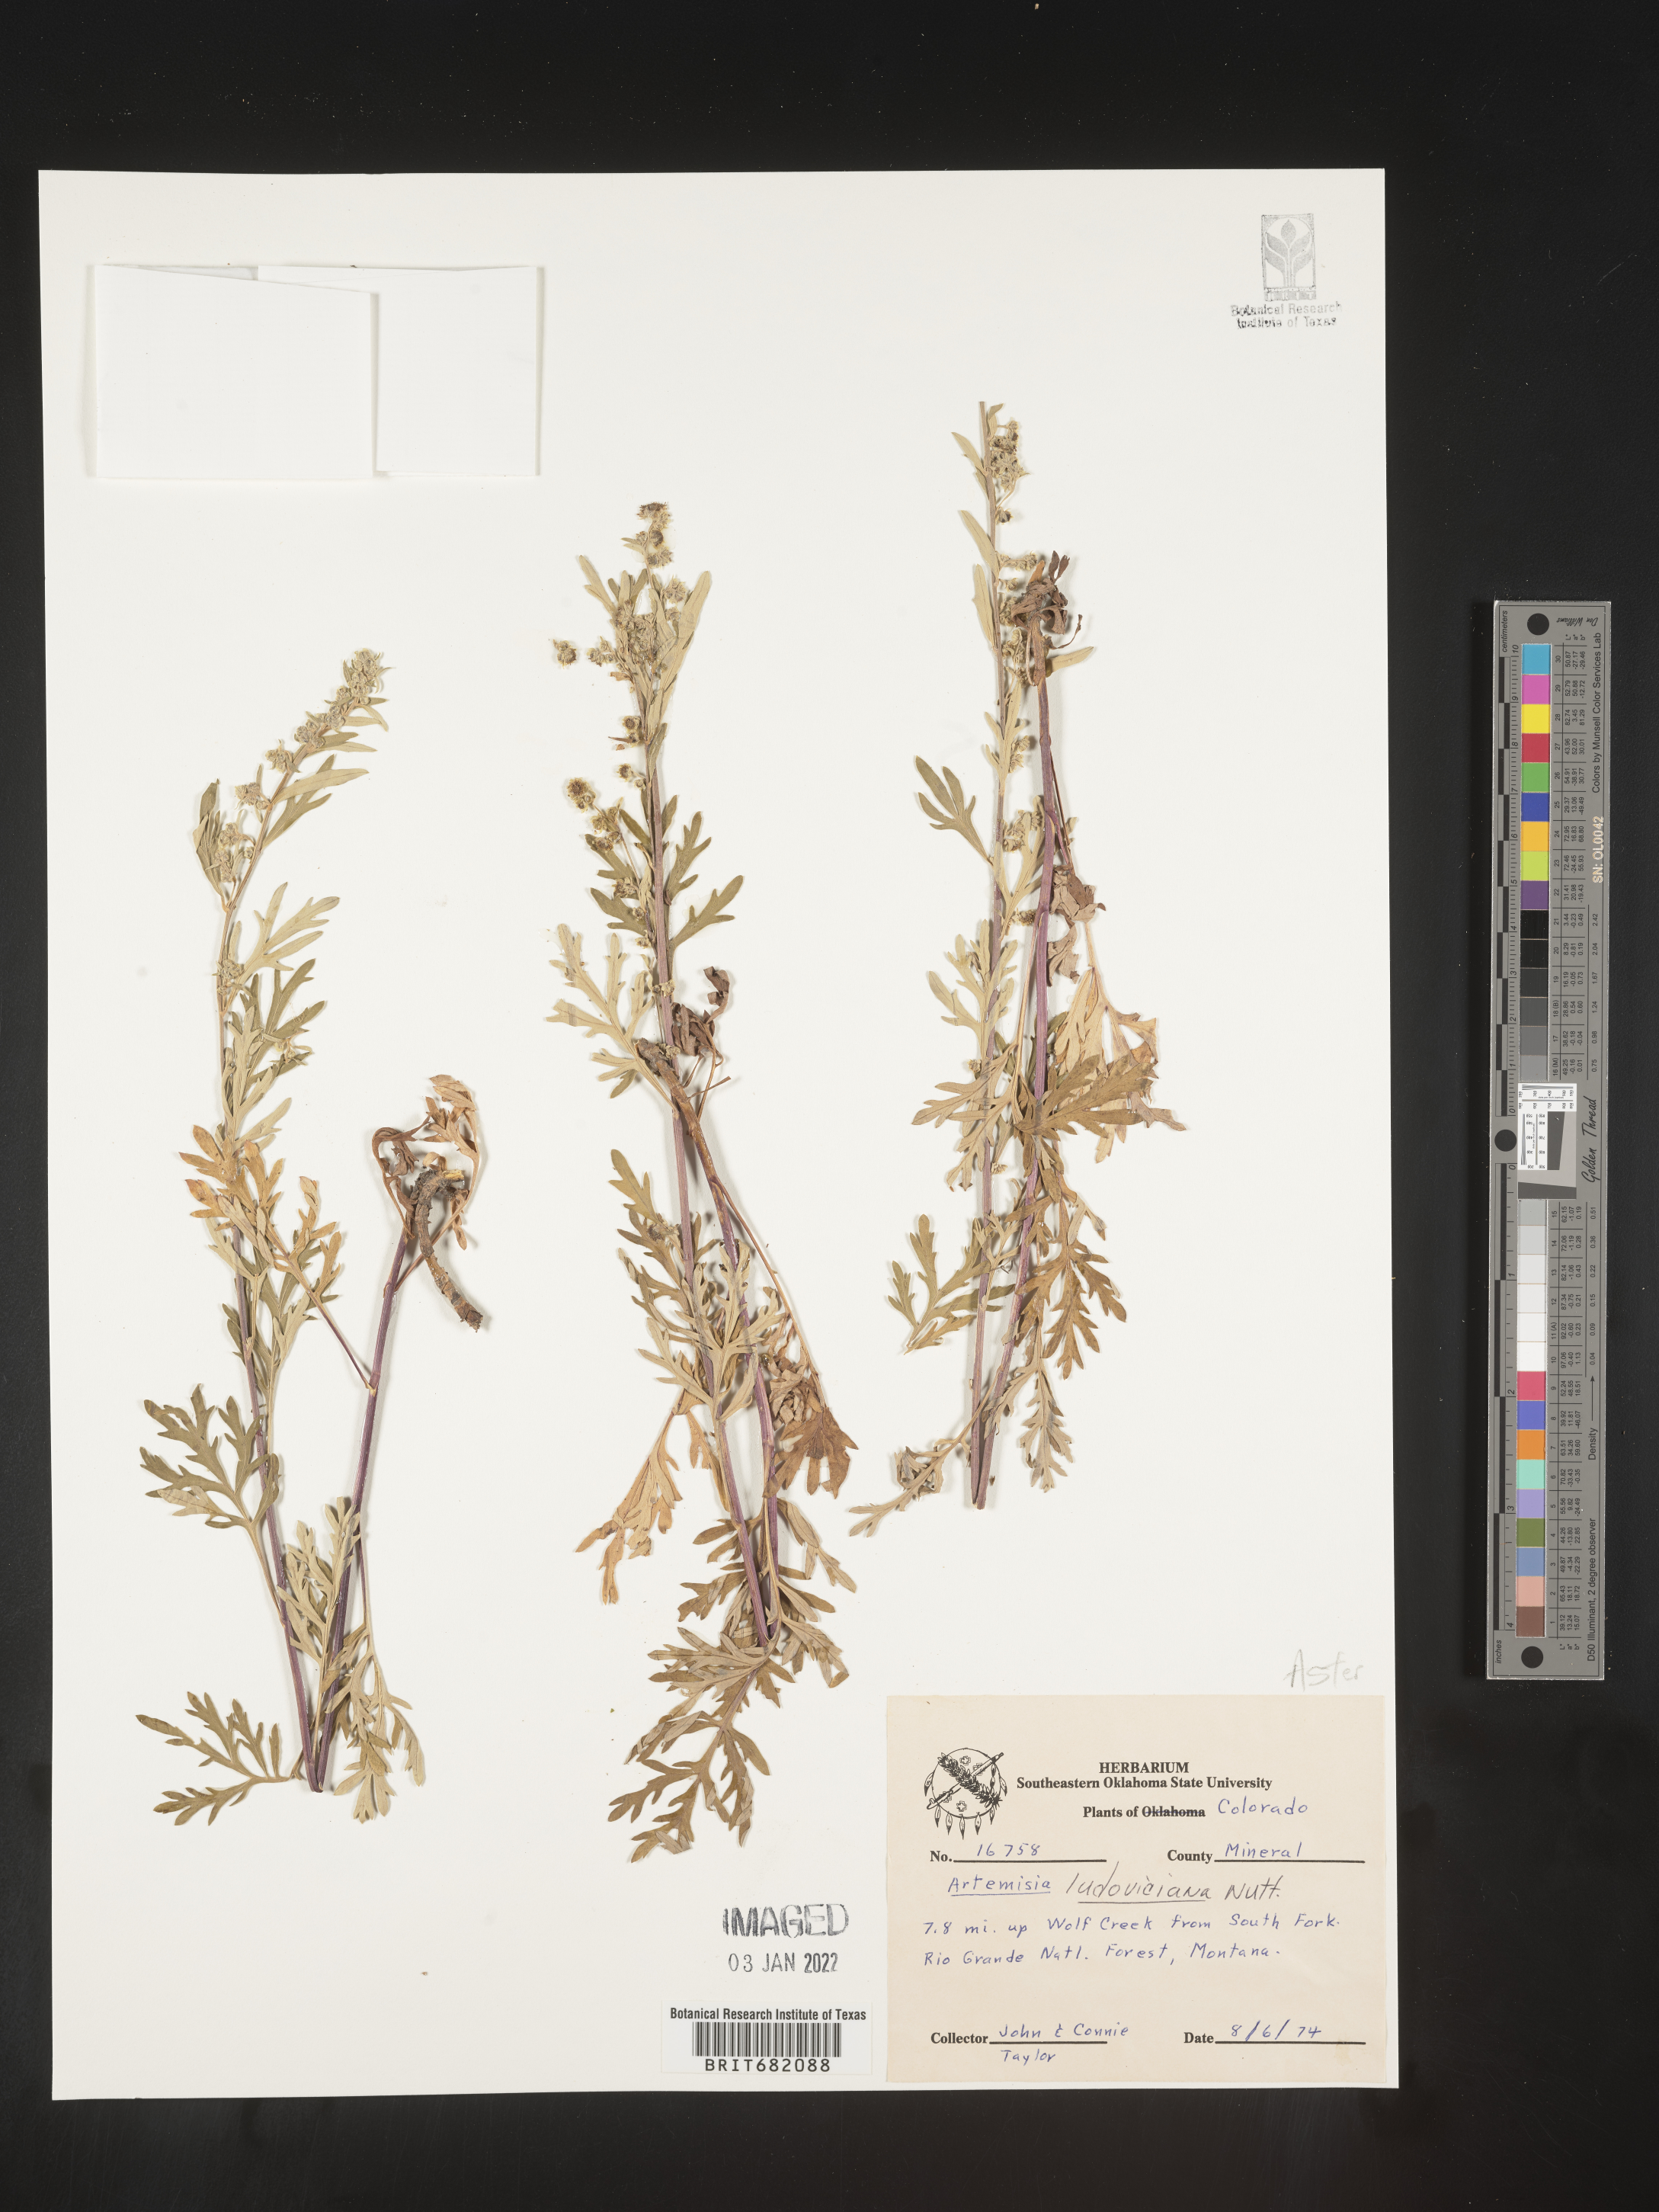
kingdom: Plantae
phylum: Tracheophyta
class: Magnoliopsida
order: Asterales
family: Asteraceae
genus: Artemisia
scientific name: Artemisia ludoviciana
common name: Western mugwort
